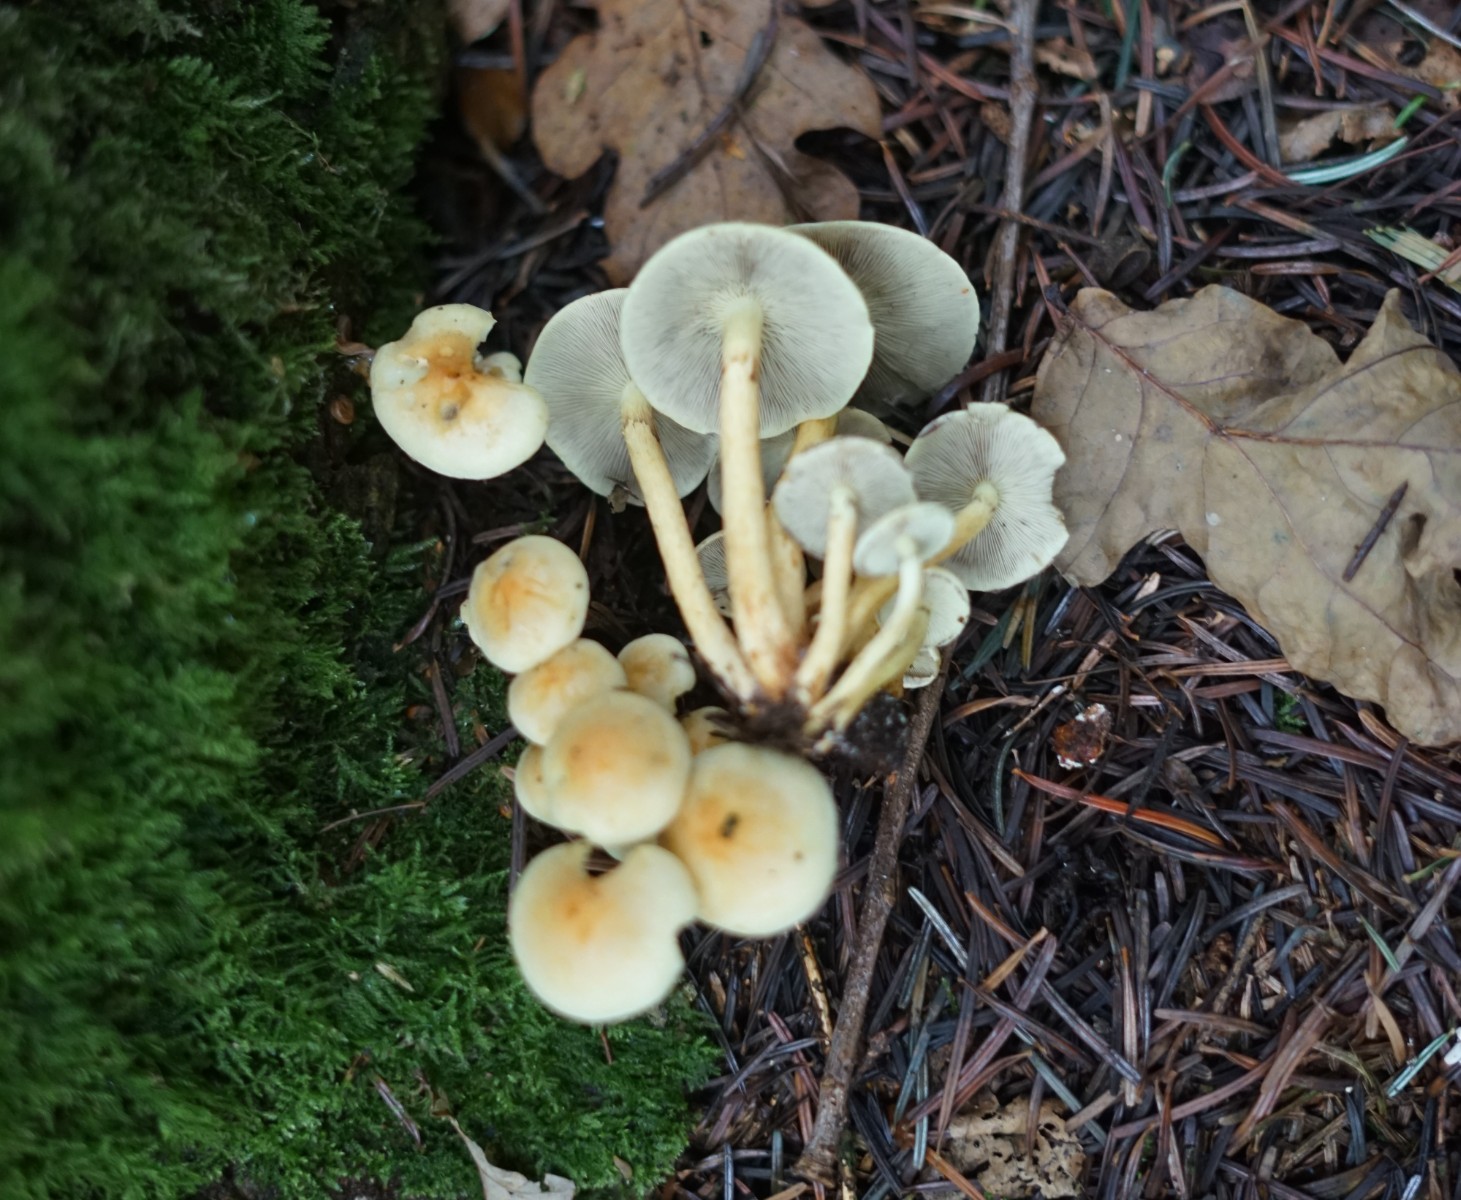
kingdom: Fungi
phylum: Basidiomycota
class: Agaricomycetes
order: Agaricales
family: Strophariaceae
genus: Hypholoma
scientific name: Hypholoma fasciculare
